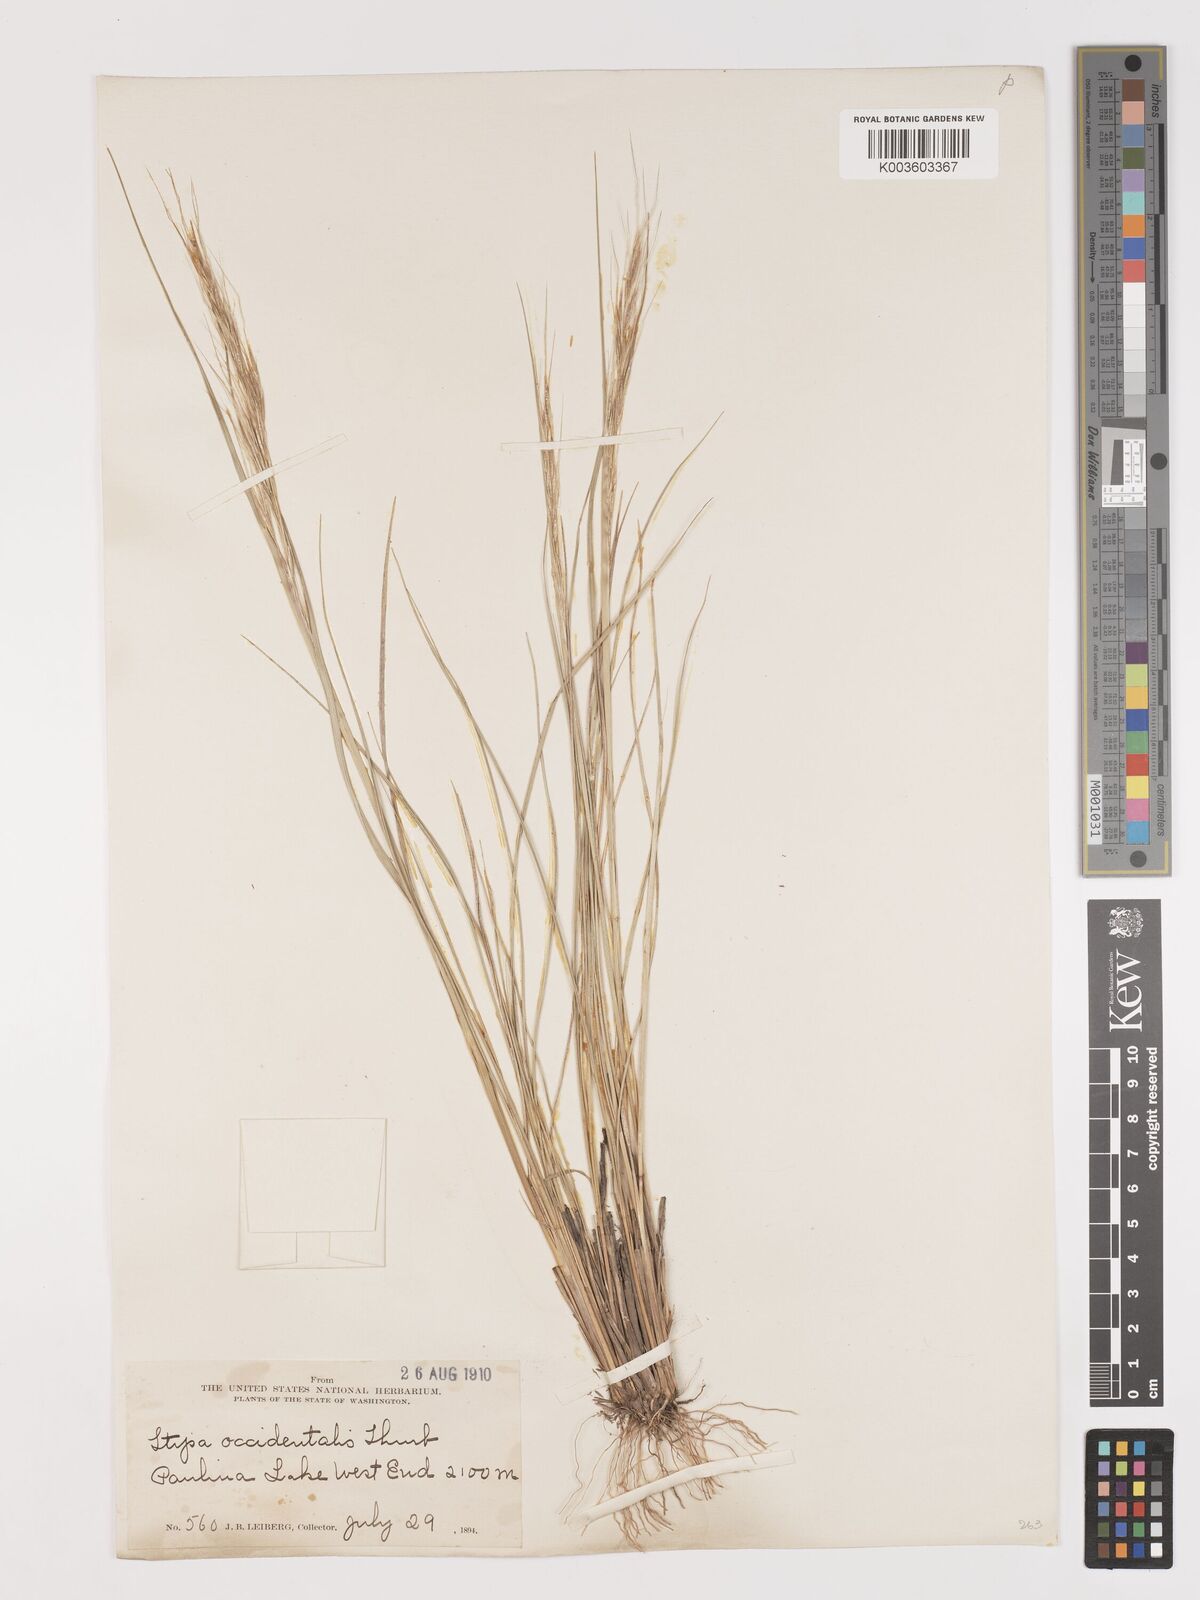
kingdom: Plantae
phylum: Tracheophyta
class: Liliopsida
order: Poales
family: Poaceae
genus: Eriocoma
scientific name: Eriocoma thurberiana
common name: Thurber's needlegrass
